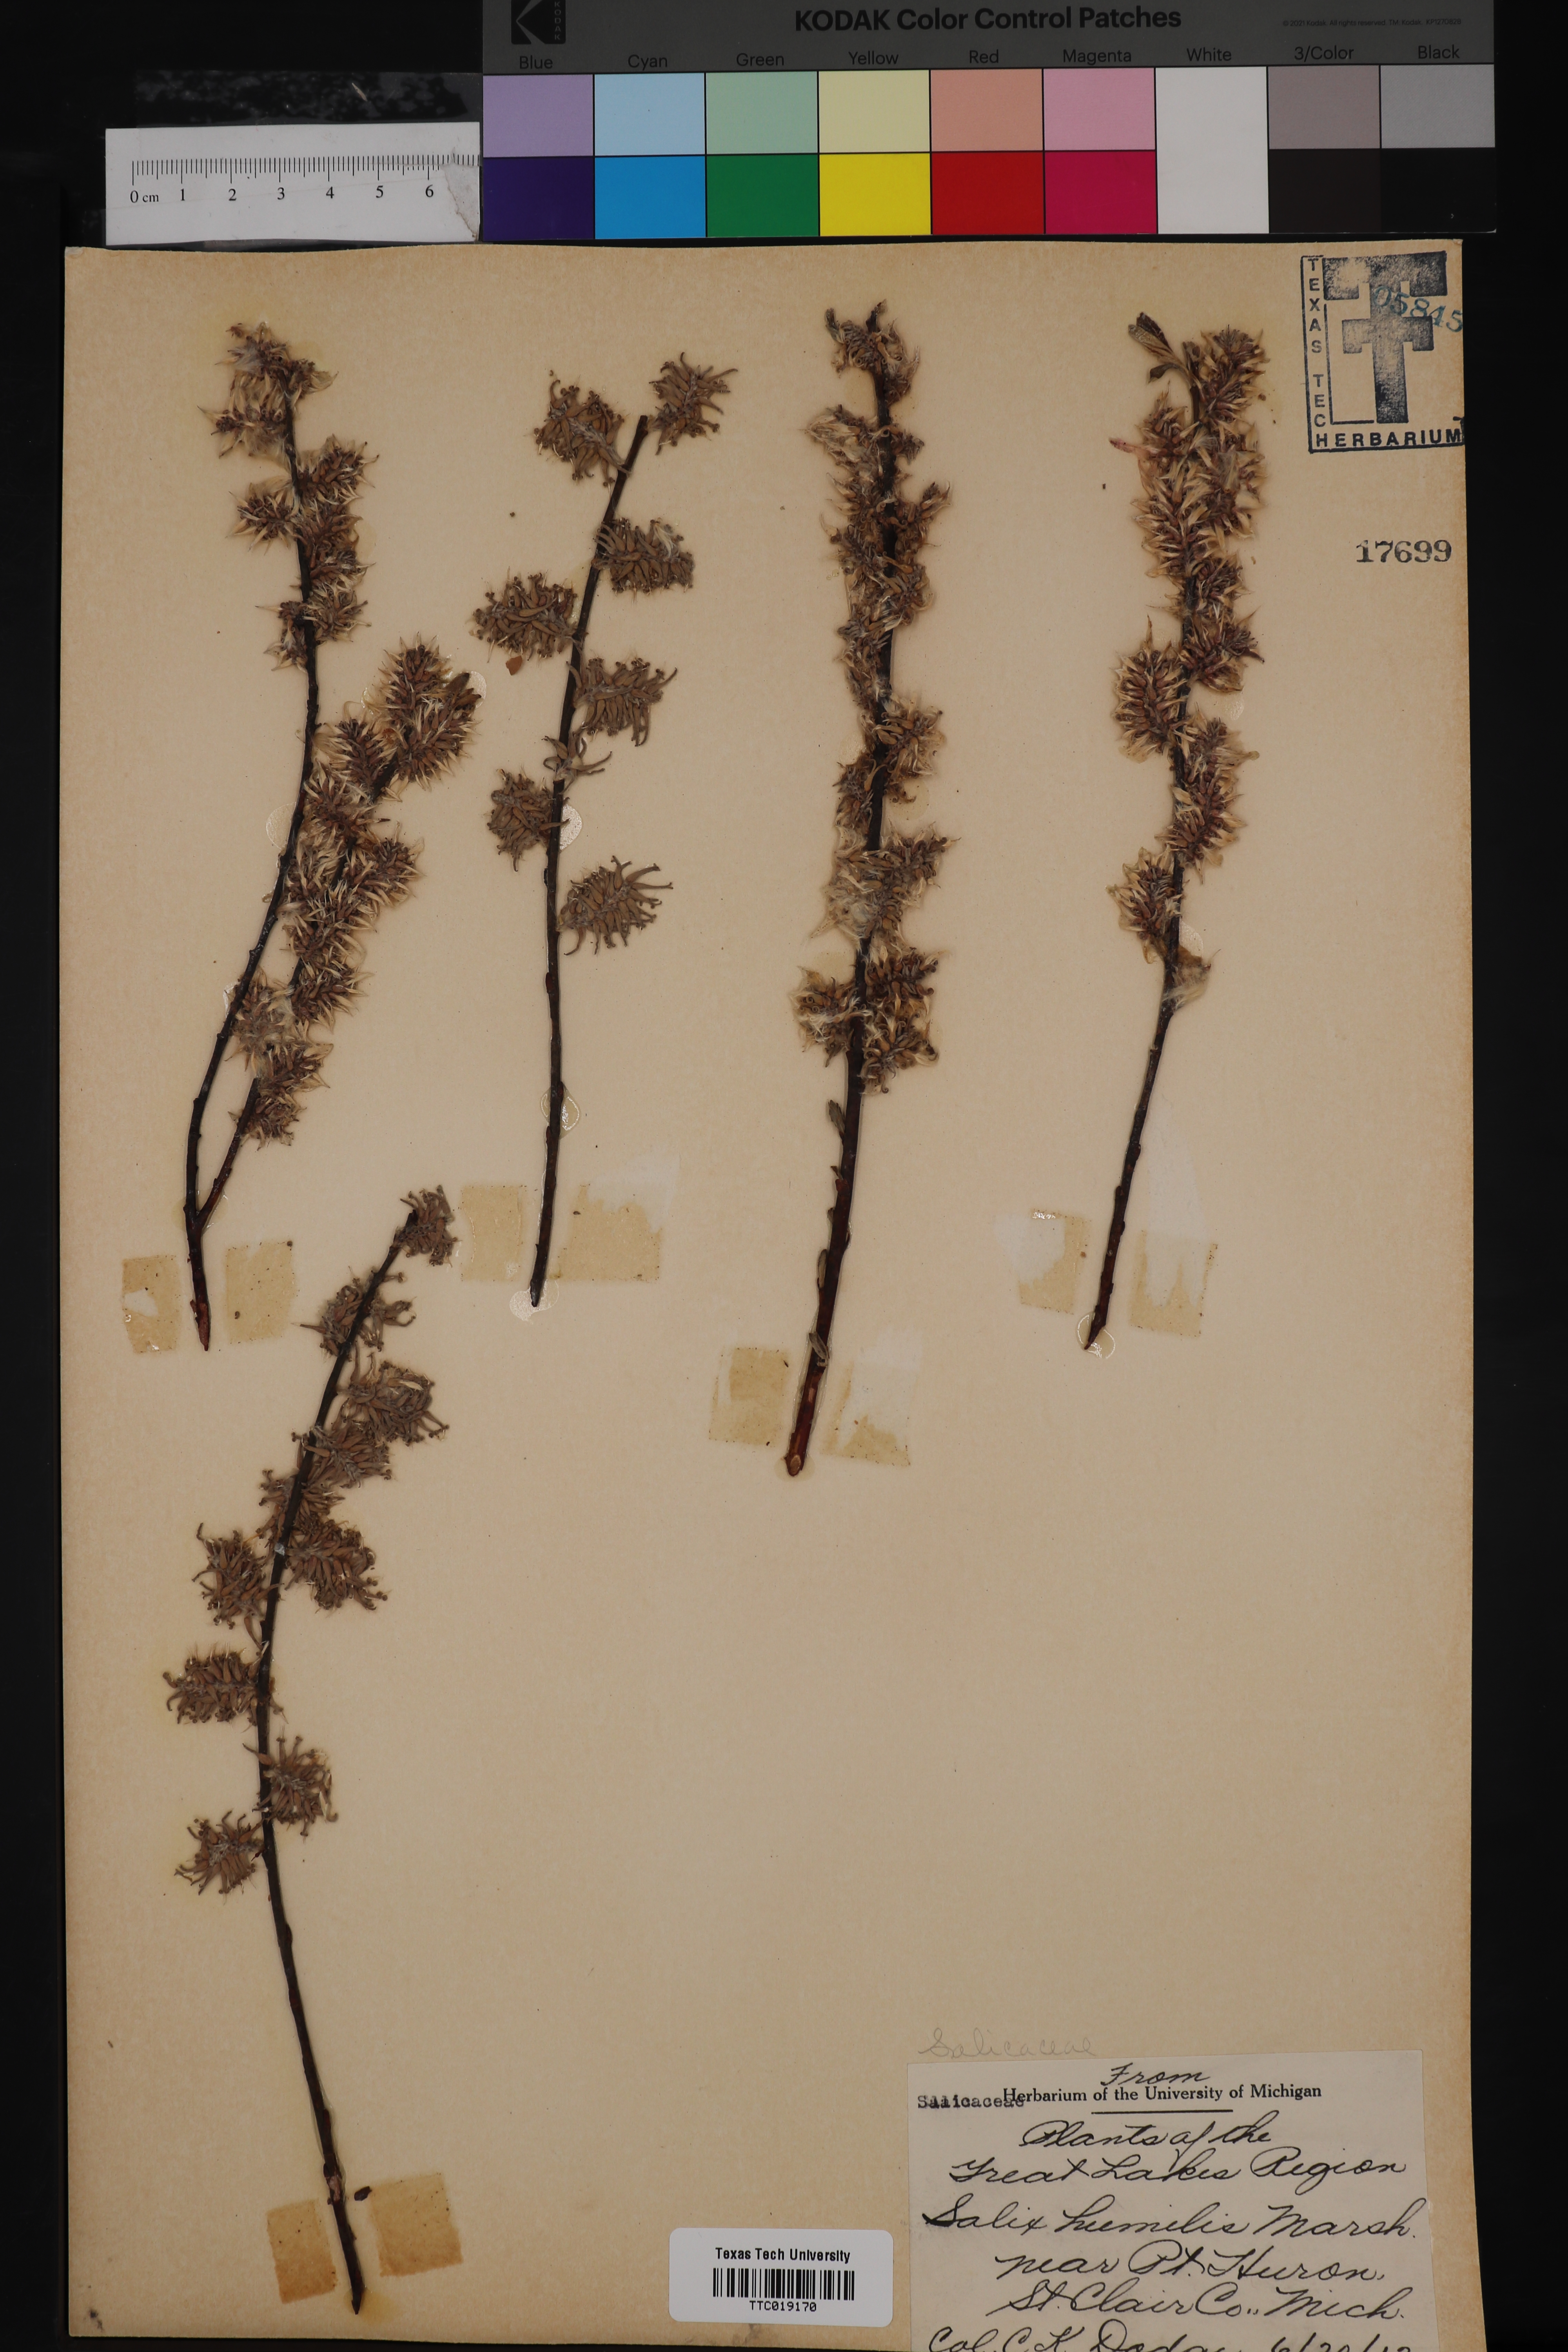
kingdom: Plantae
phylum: Tracheophyta
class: Magnoliopsida
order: Malpighiales
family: Salicaceae
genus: Salix
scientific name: Salix humilis
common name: Prairie willow
